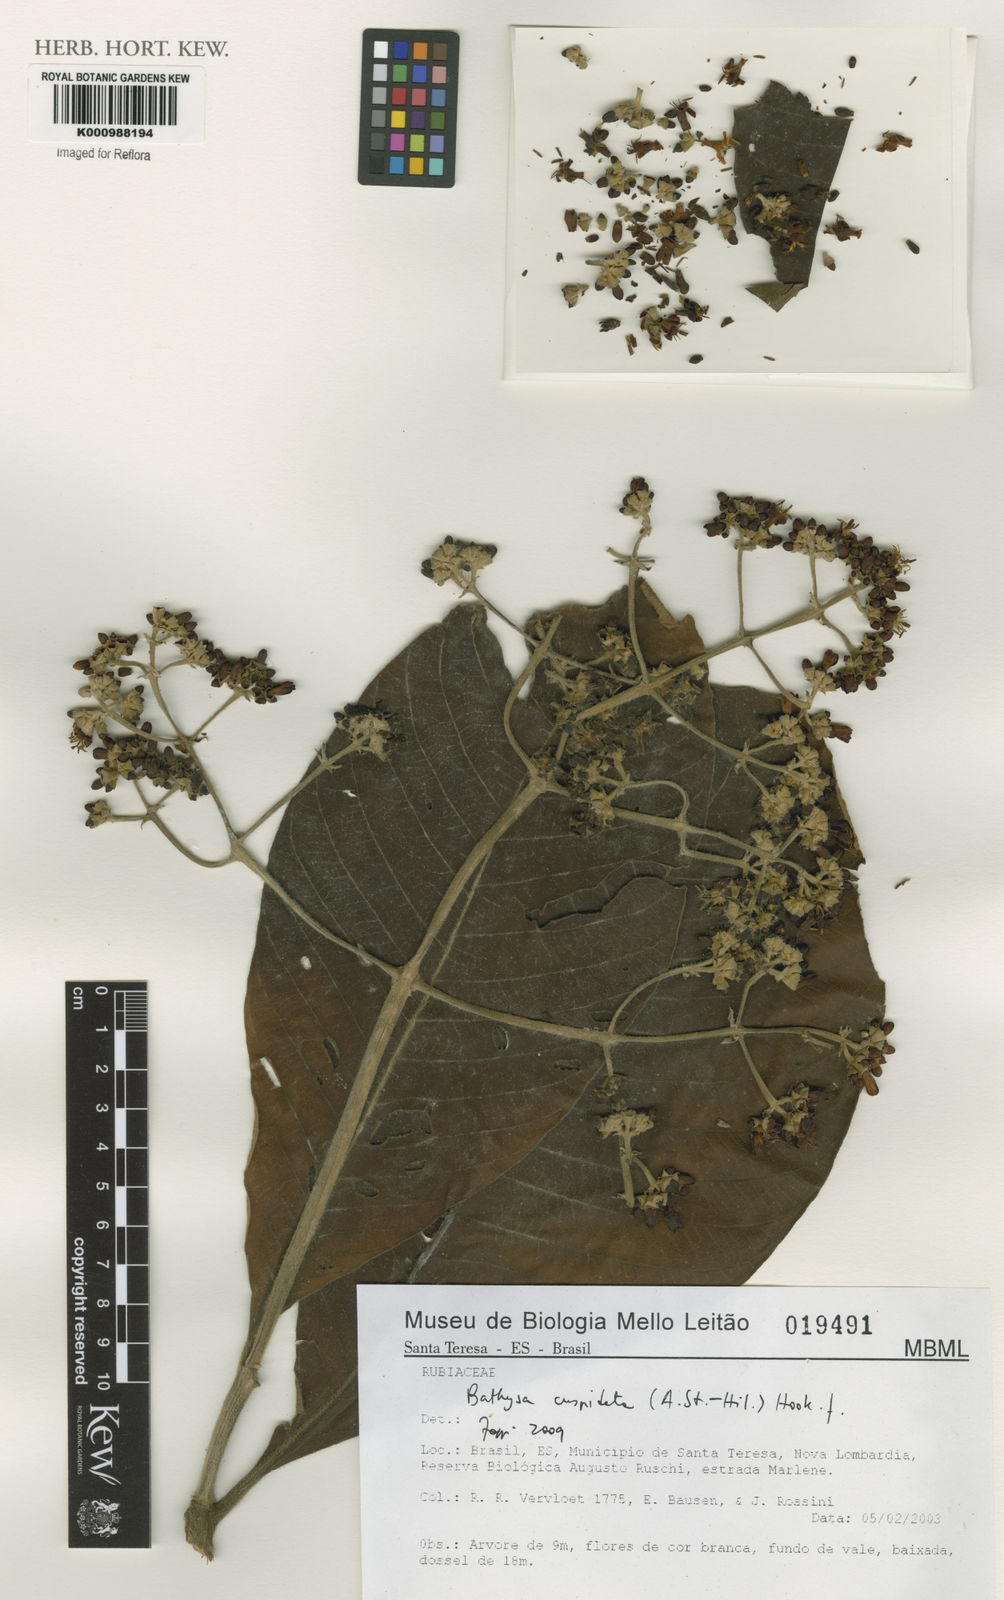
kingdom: Plantae
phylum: Tracheophyta
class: Magnoliopsida
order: Gentianales
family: Rubiaceae
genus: Schizocalyx
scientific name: Schizocalyx cuspidatus
